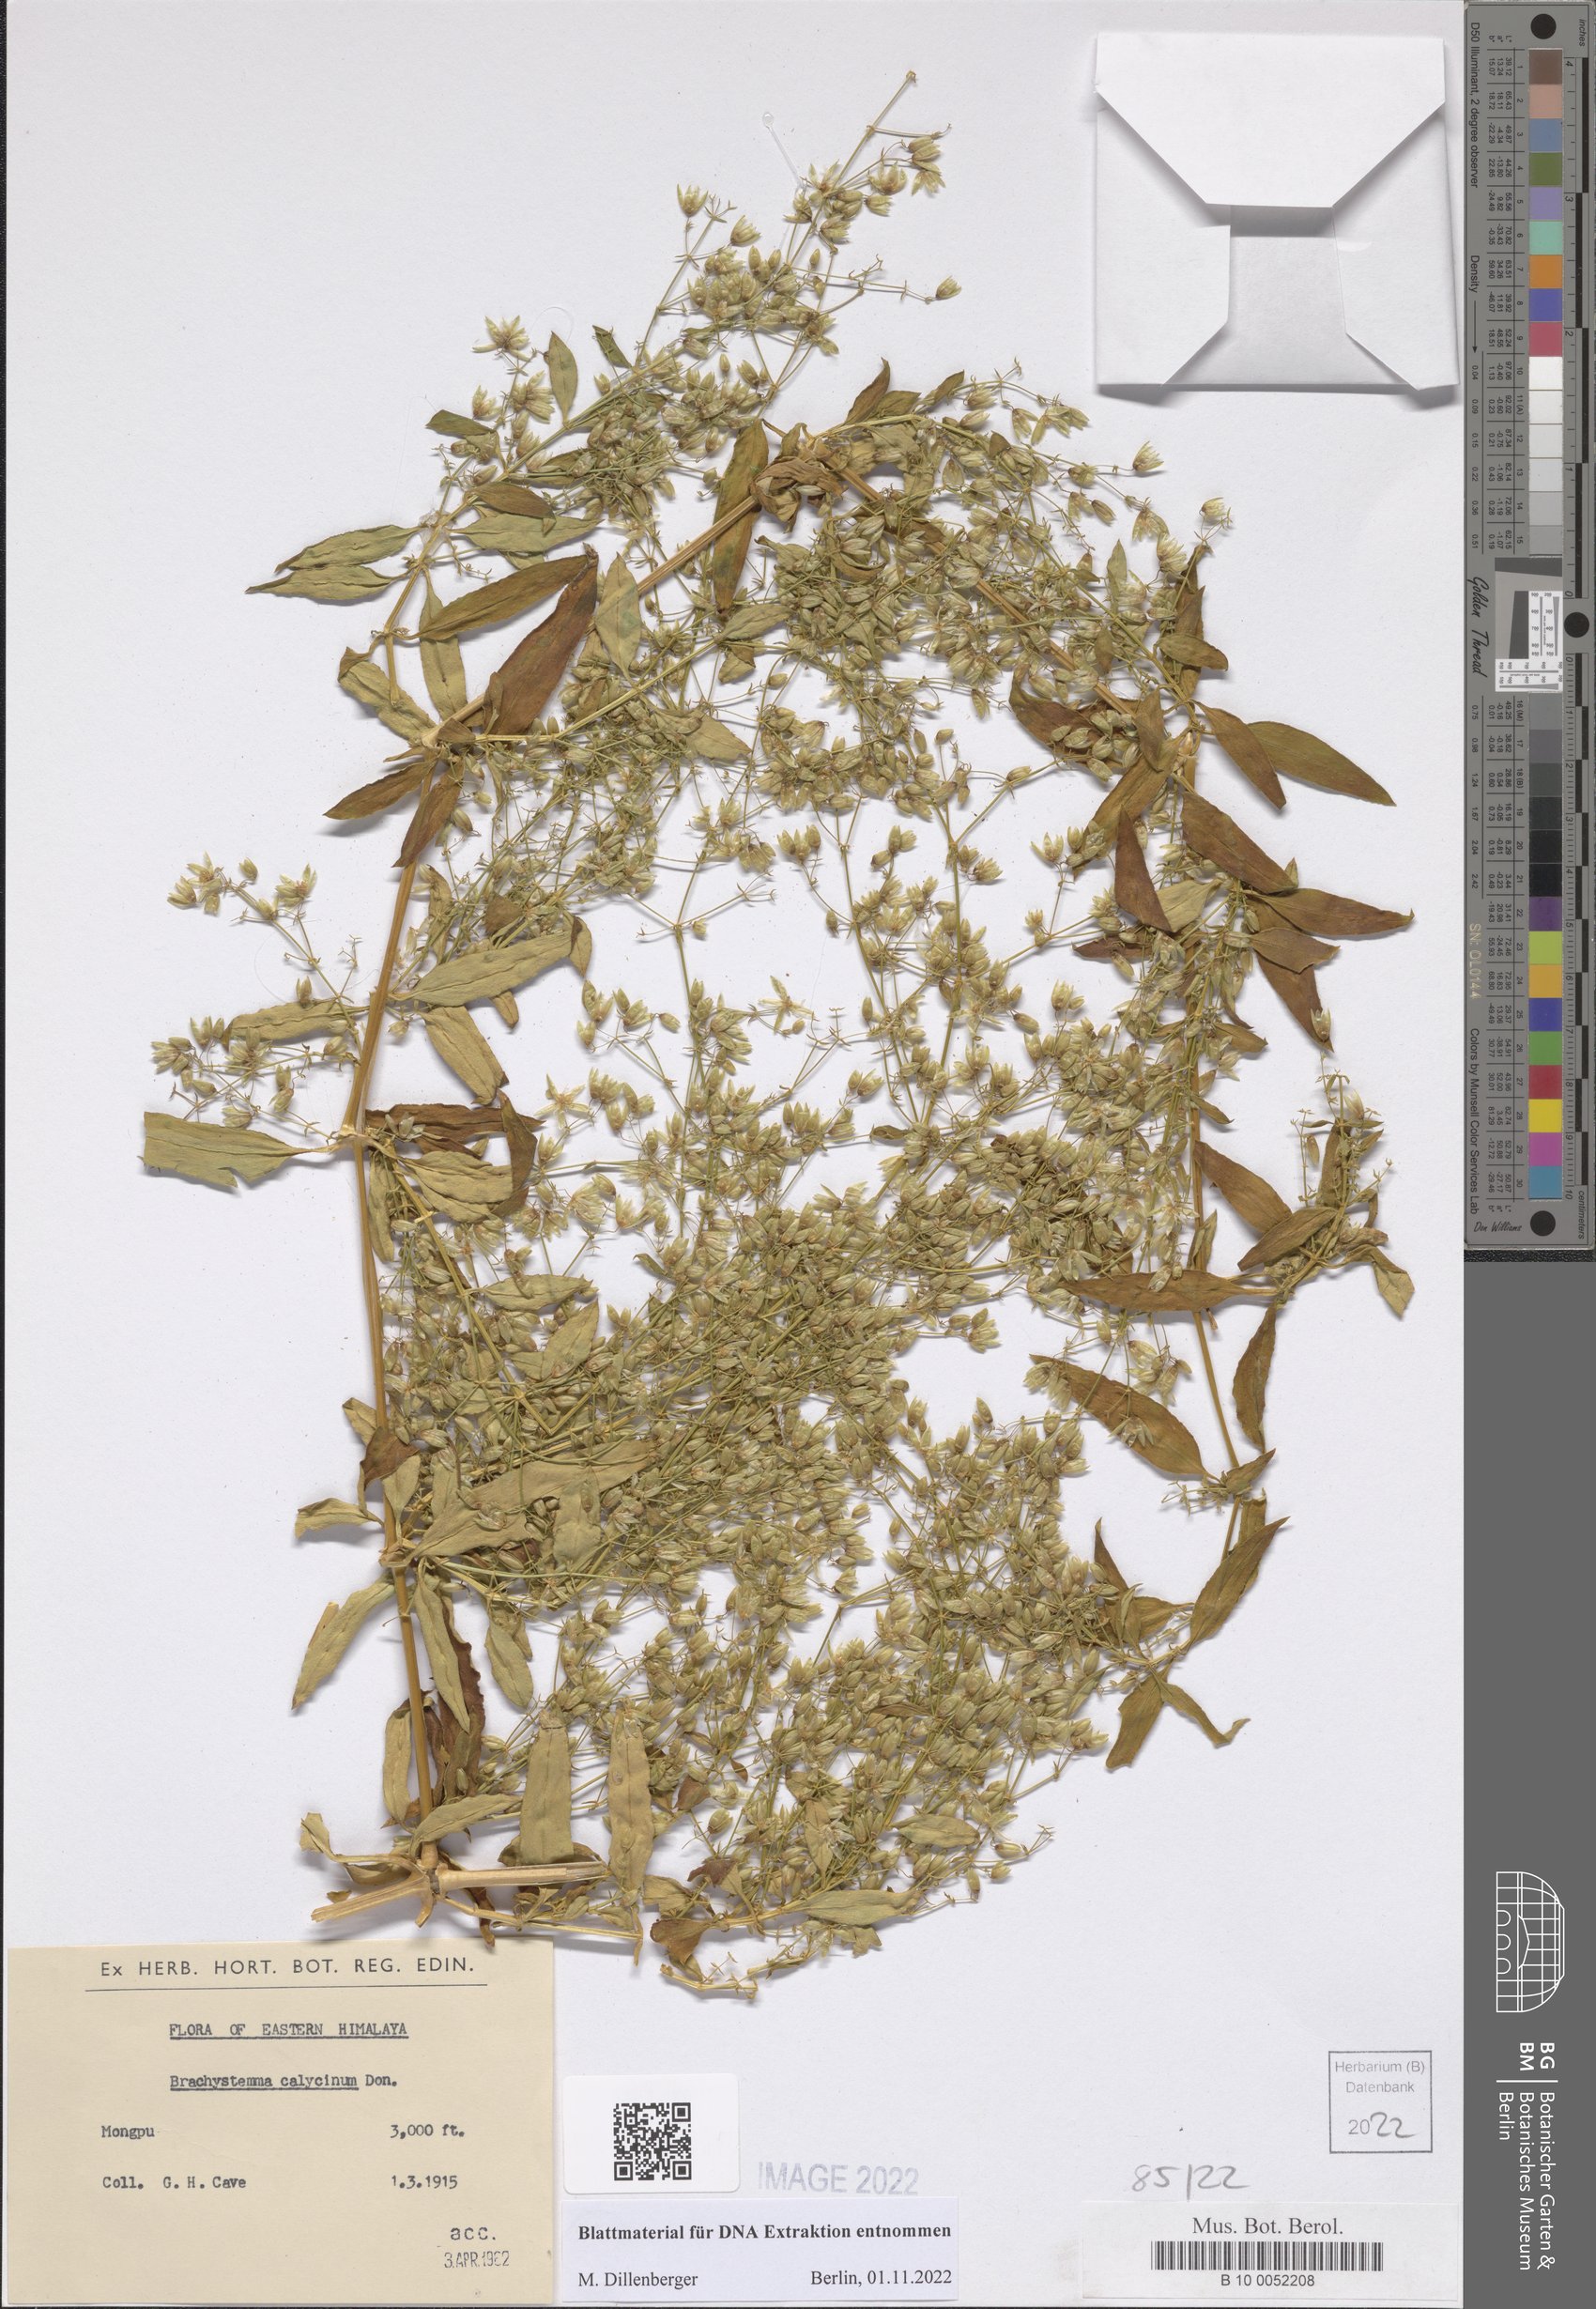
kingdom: Plantae
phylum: Tracheophyta
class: Magnoliopsida
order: Caryophyllales
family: Caryophyllaceae
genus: Brachystemma
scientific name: Brachystemma calycinum
